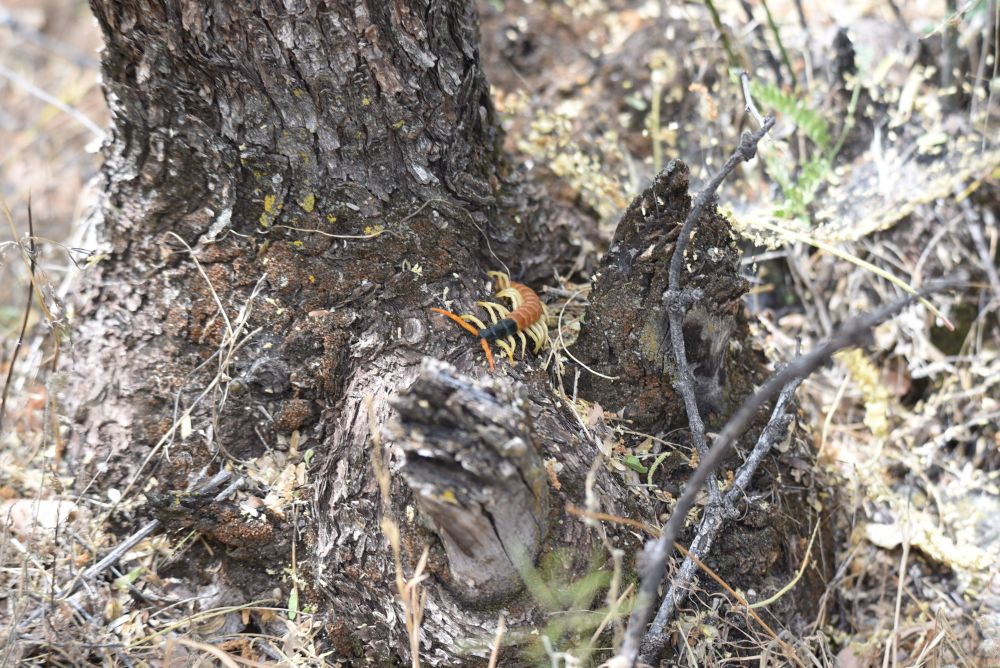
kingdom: Animalia
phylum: Arthropoda
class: Chilopoda
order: Scolopendromorpha
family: Scolopendridae
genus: Scolopendra
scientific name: Scolopendra heros
